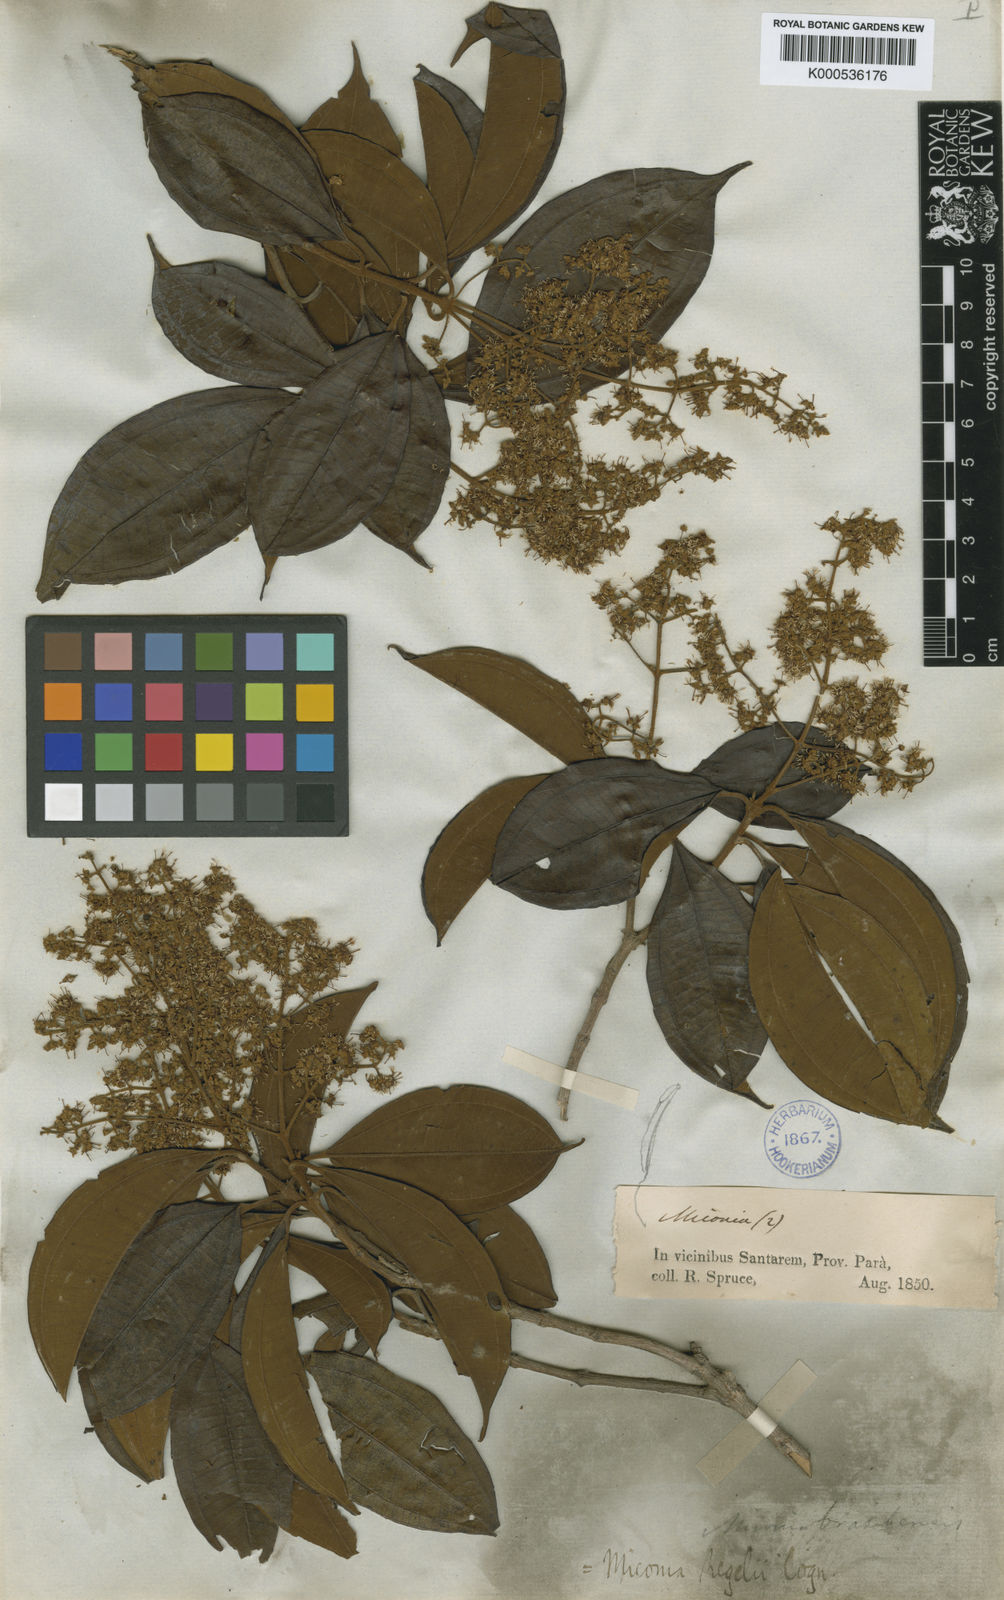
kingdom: Plantae
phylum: Tracheophyta
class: Magnoliopsida
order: Myrtales
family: Melastomataceae
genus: Miconia
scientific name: Miconia regelii
